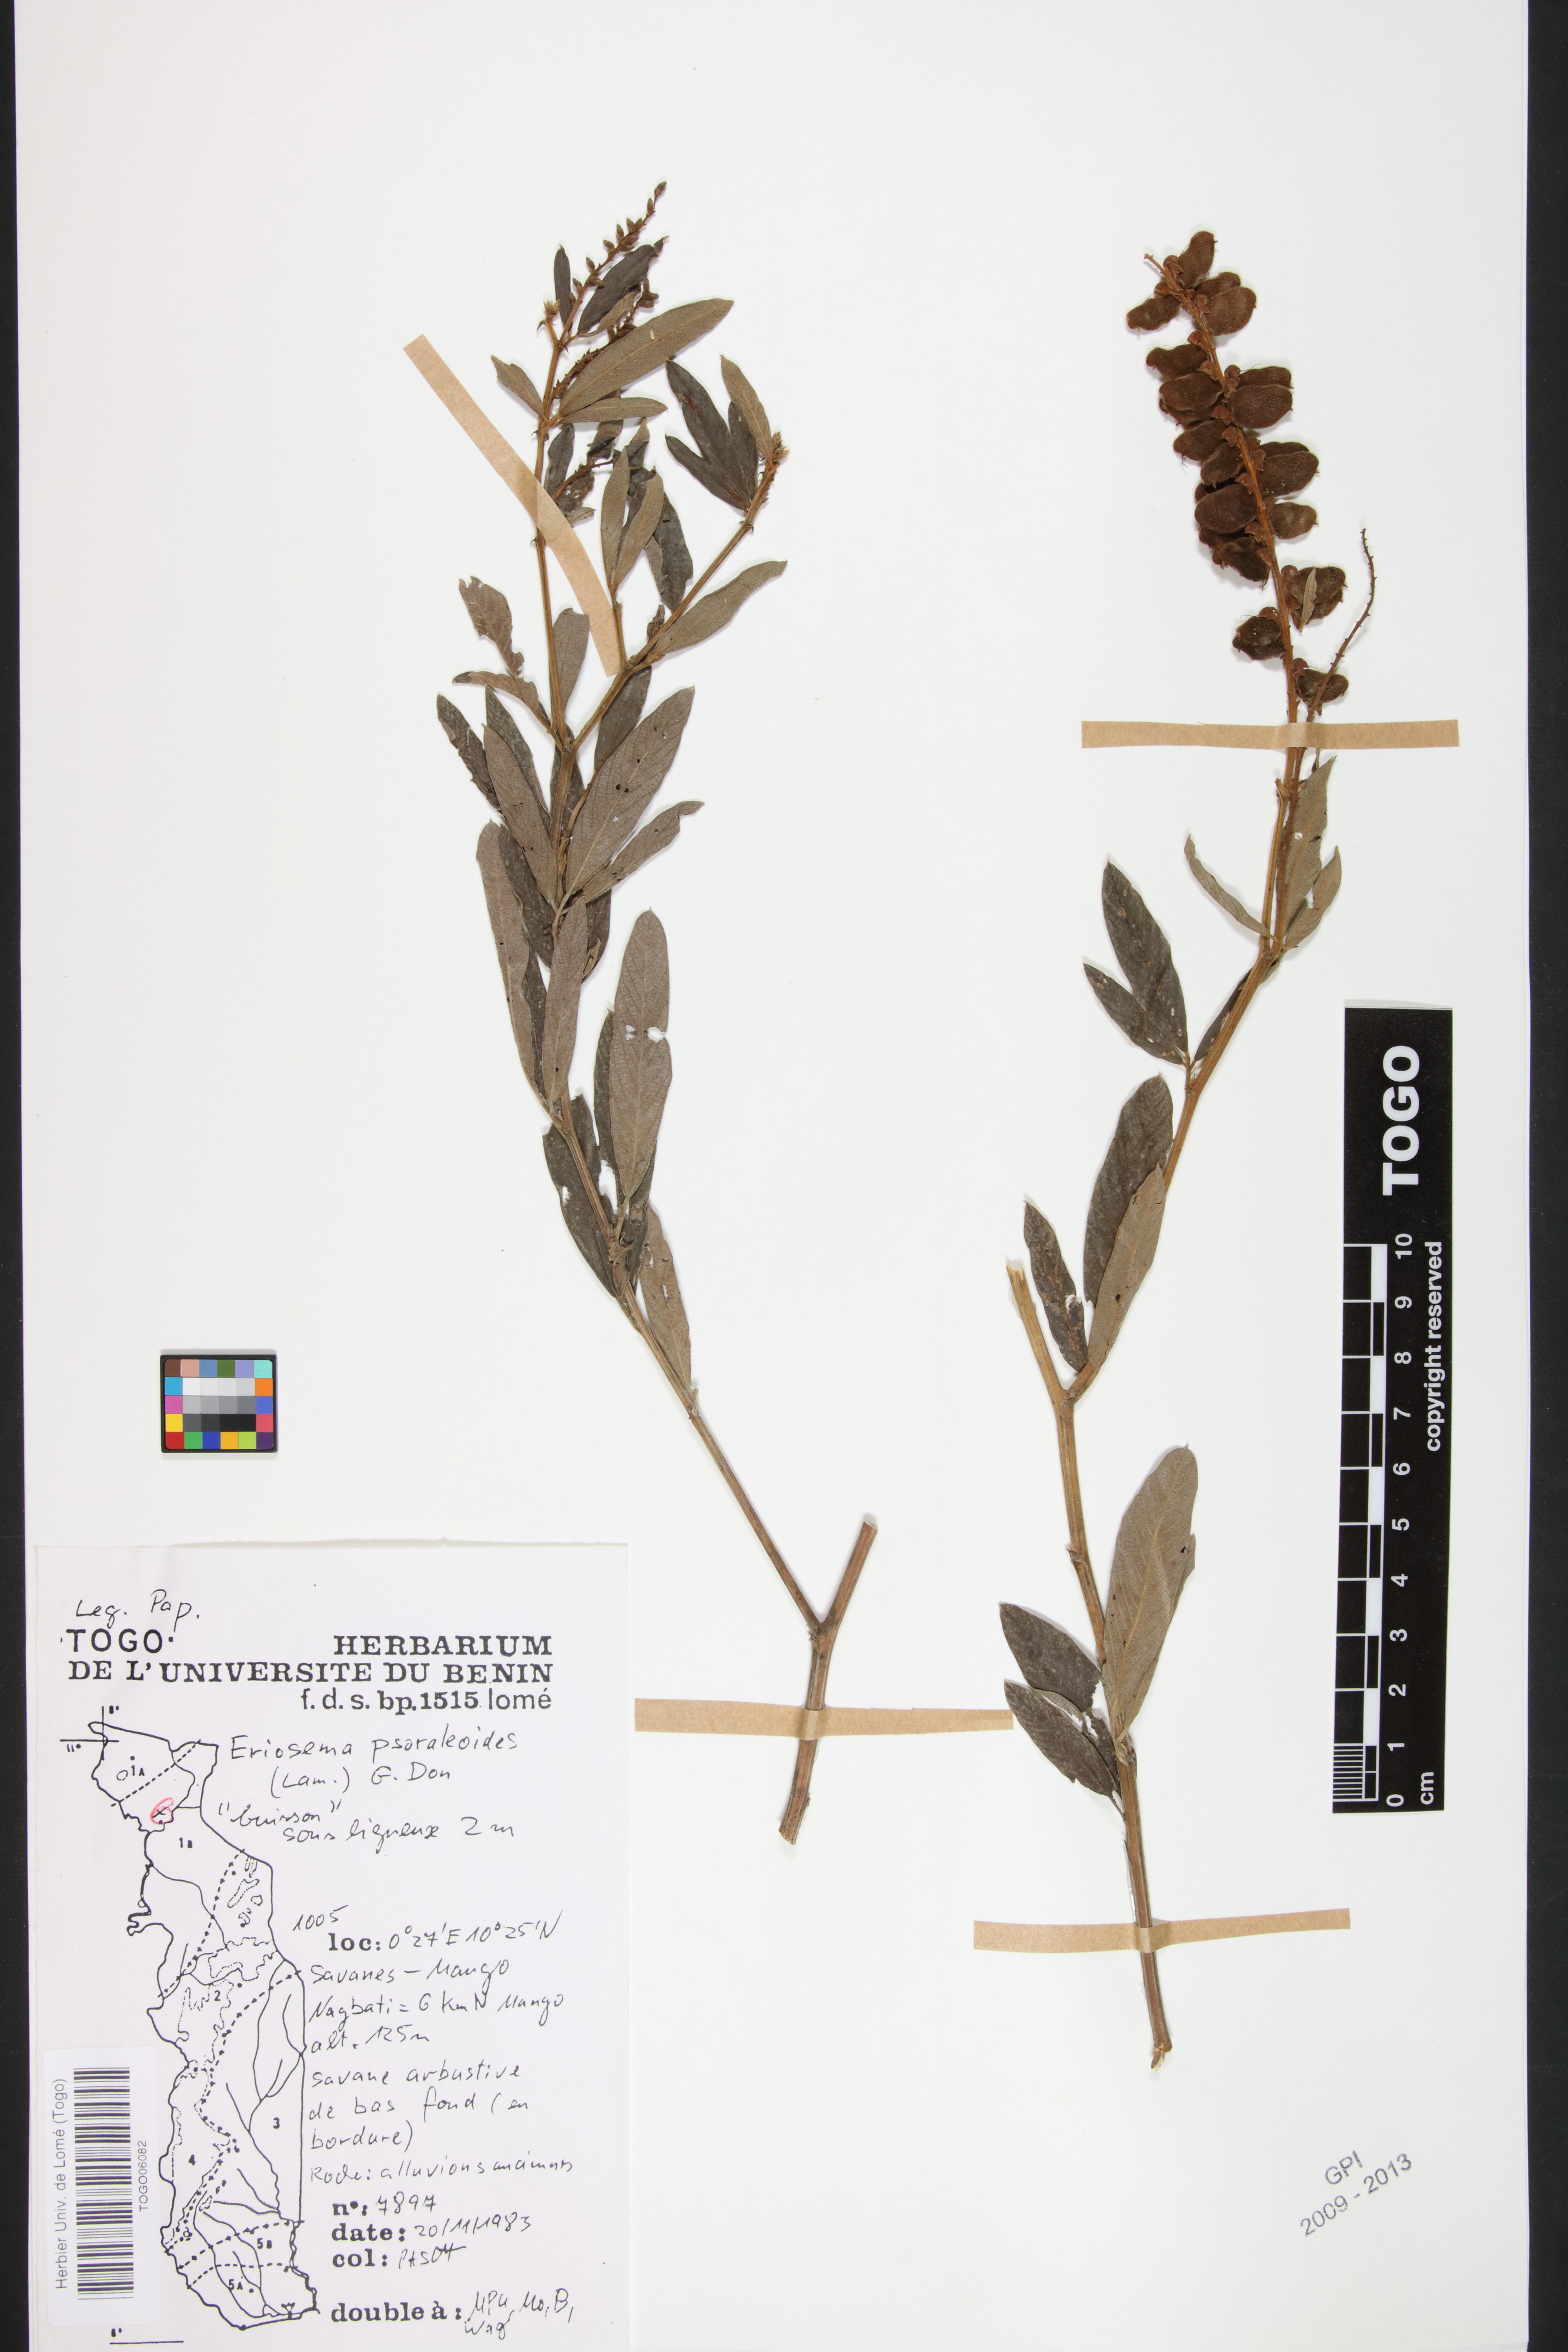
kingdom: Plantae
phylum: Tracheophyta
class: Magnoliopsida
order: Fabales
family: Fabaceae
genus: Eriosema
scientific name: Eriosema psoraleoides
